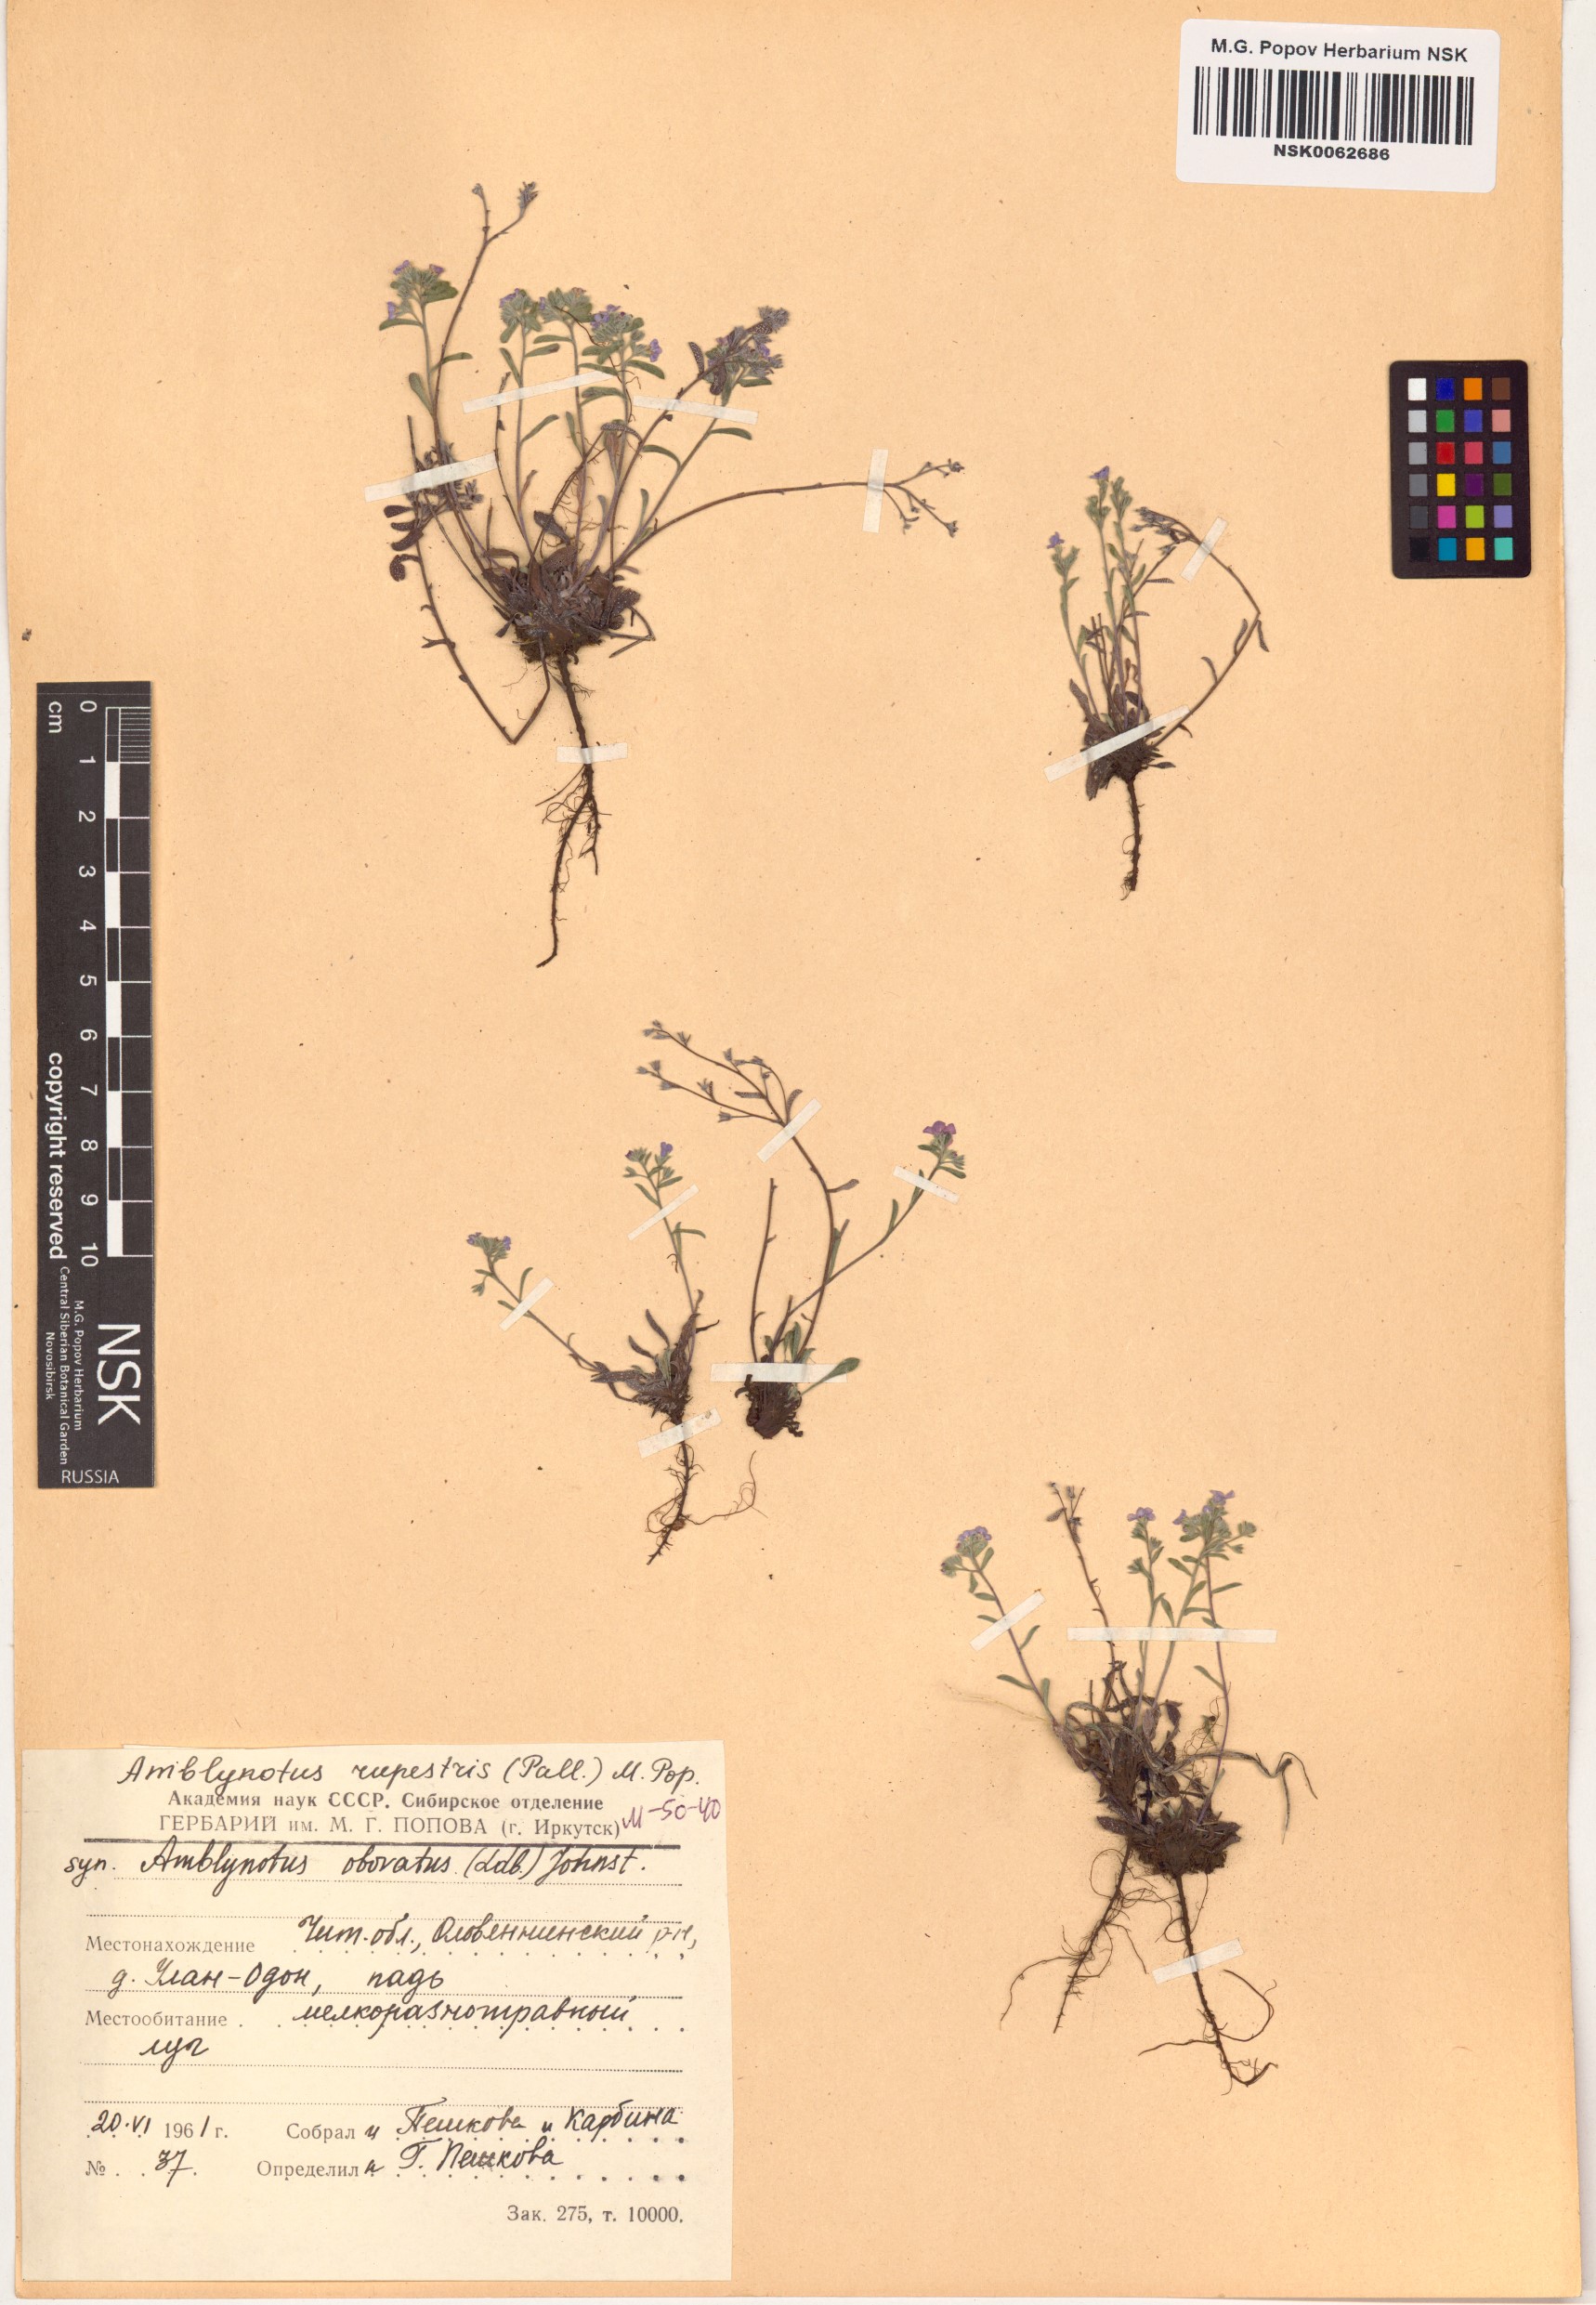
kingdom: Plantae
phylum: Tracheophyta
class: Magnoliopsida
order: Boraginales
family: Boraginaceae
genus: Eritrichium
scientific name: Eritrichium rupestre
